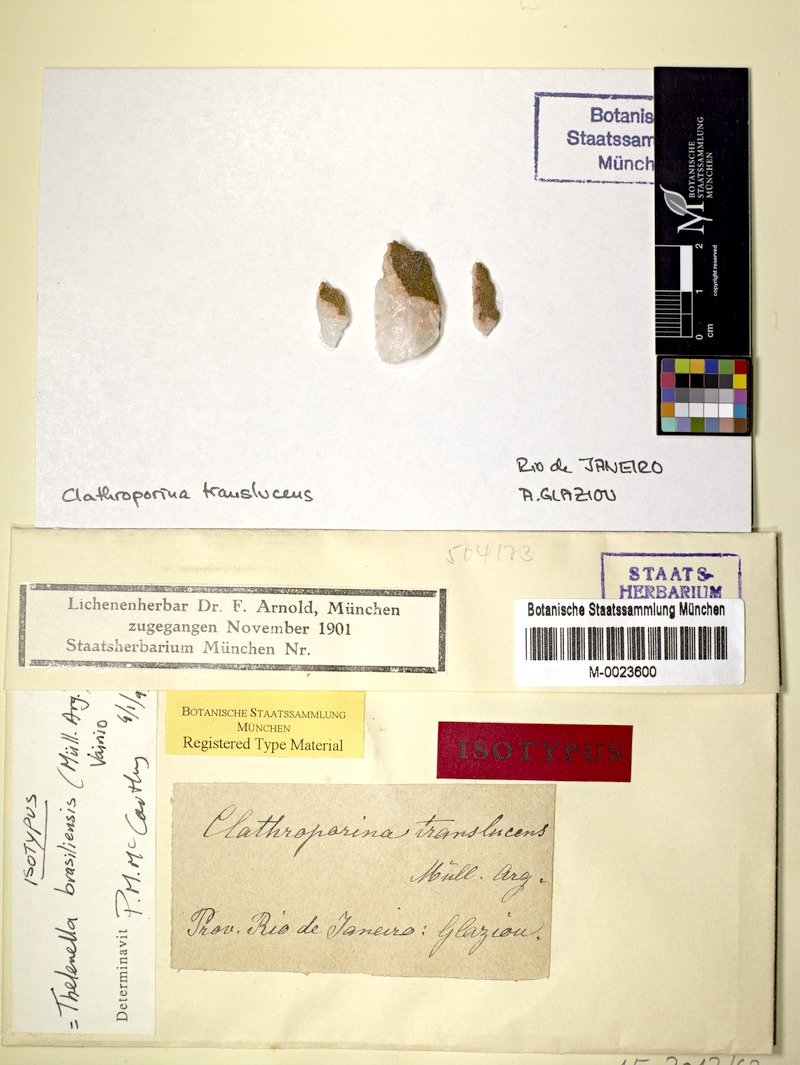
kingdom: Fungi
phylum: Ascomycota
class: Lecanoromycetes
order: Ostropales
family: Thelenellaceae
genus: Thelenella
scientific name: Thelenella brasiliensis
